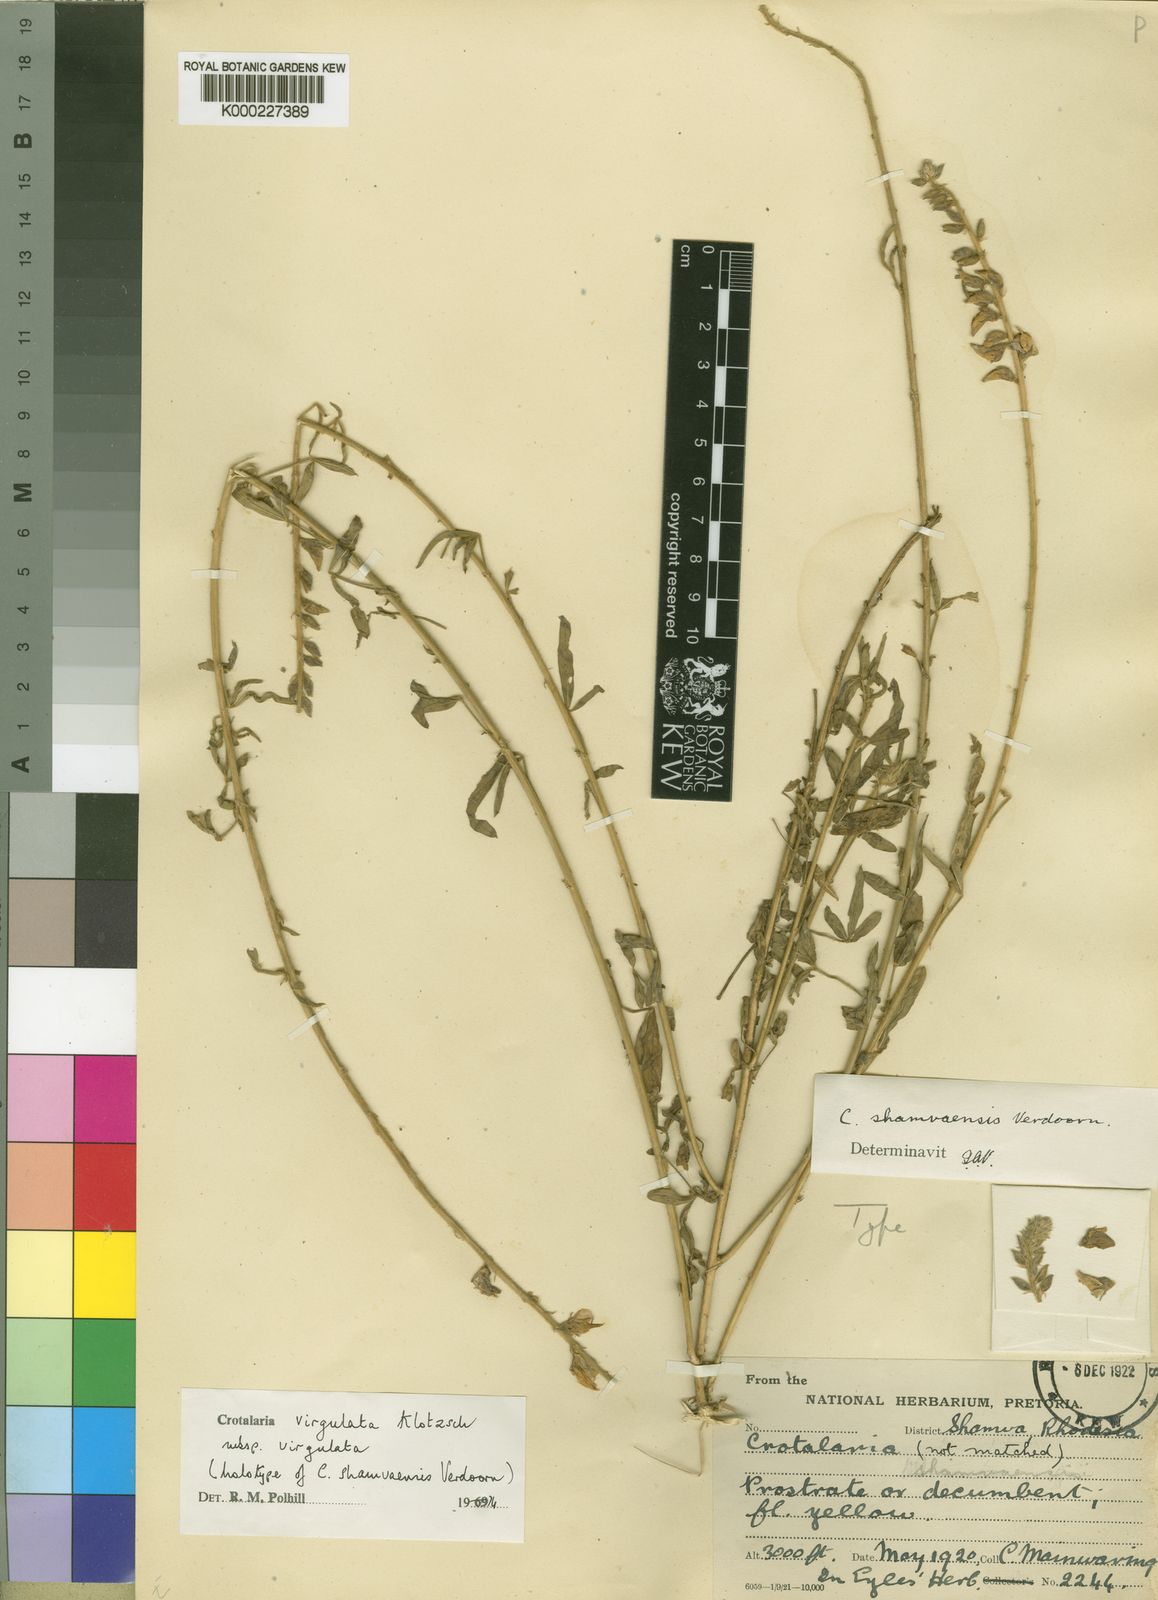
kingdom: Plantae
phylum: Tracheophyta
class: Magnoliopsida
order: Fabales
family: Fabaceae
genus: Crotalaria
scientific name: Crotalaria virgulata
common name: Thicket rattlebox
